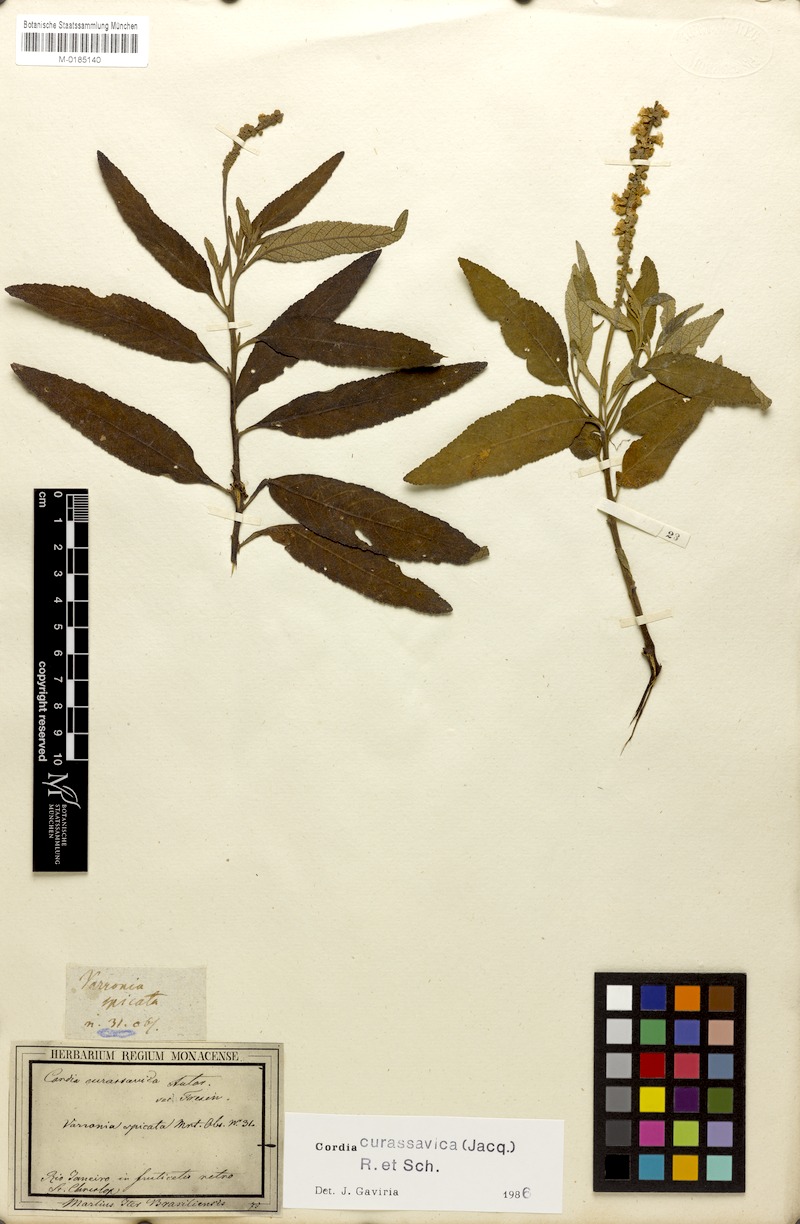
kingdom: Plantae
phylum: Tracheophyta
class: Magnoliopsida
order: Boraginales
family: Cordiaceae
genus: Varronia
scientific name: Varronia curassavica
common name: Black sage
